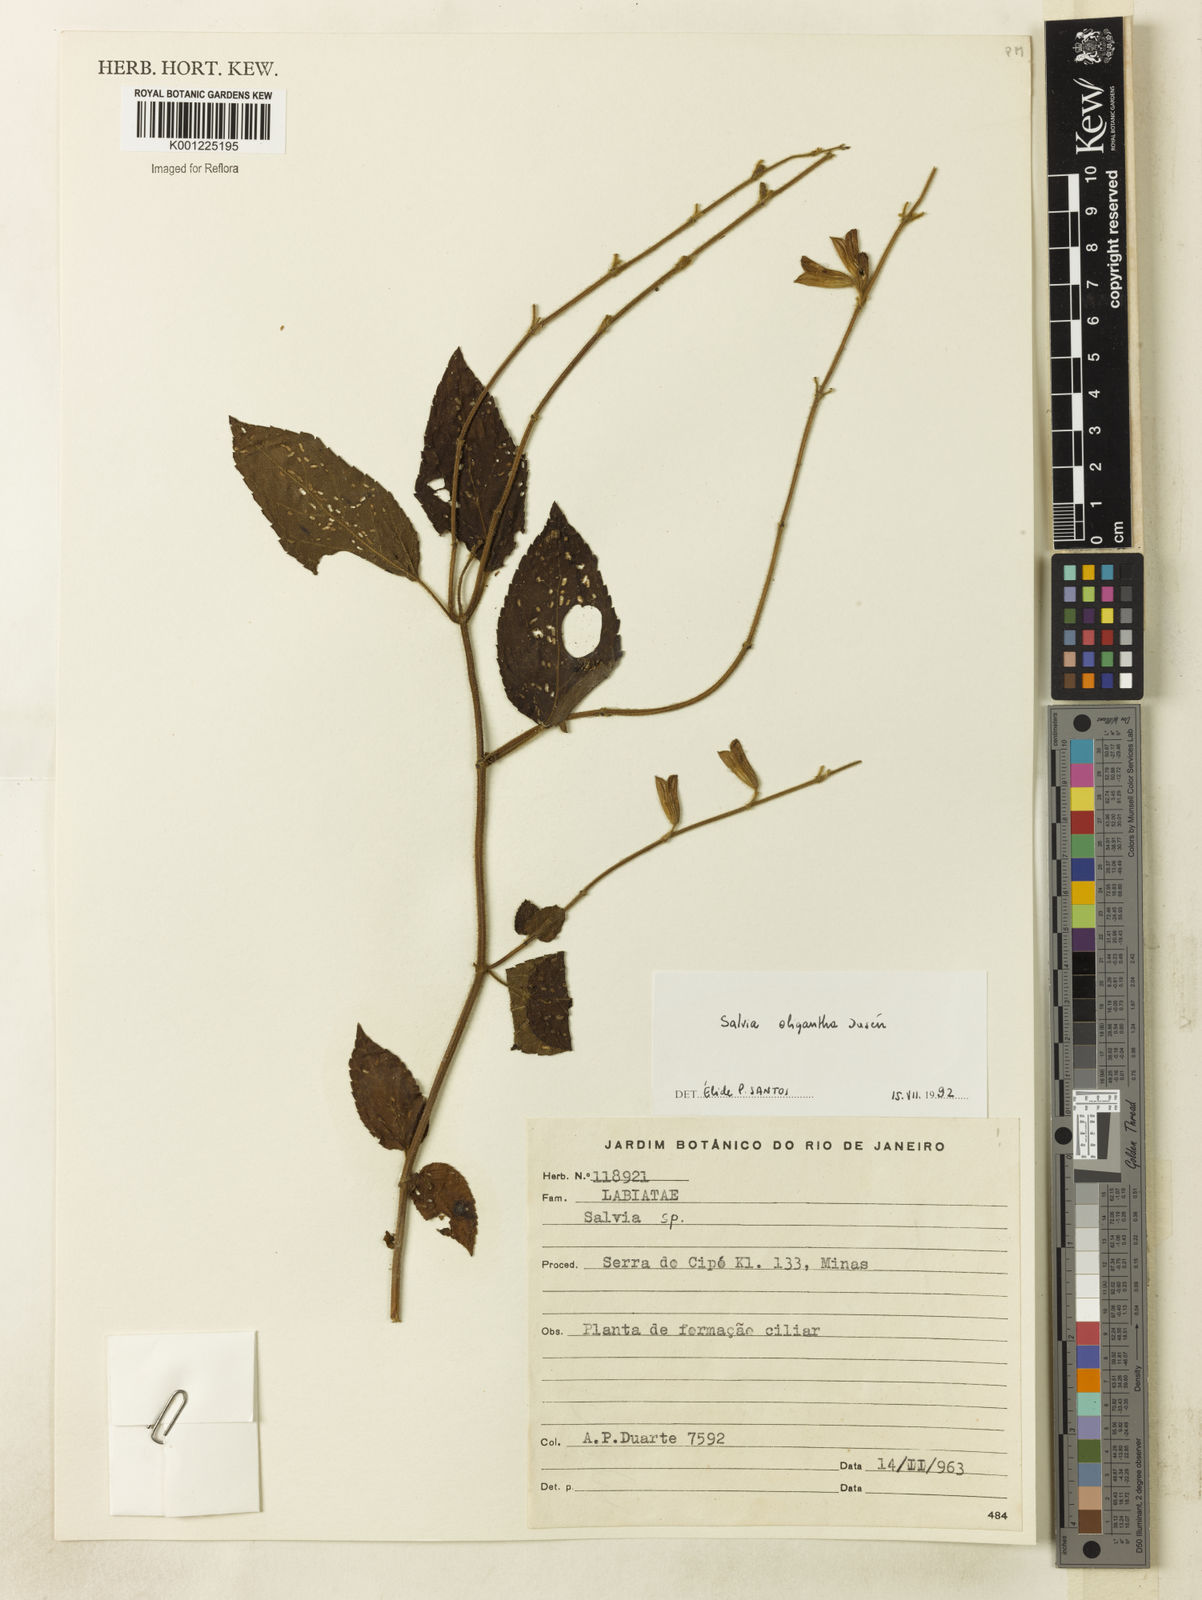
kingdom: Plantae
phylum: Tracheophyta
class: Magnoliopsida
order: Lamiales
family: Lamiaceae
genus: Salvia
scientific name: Salvia
